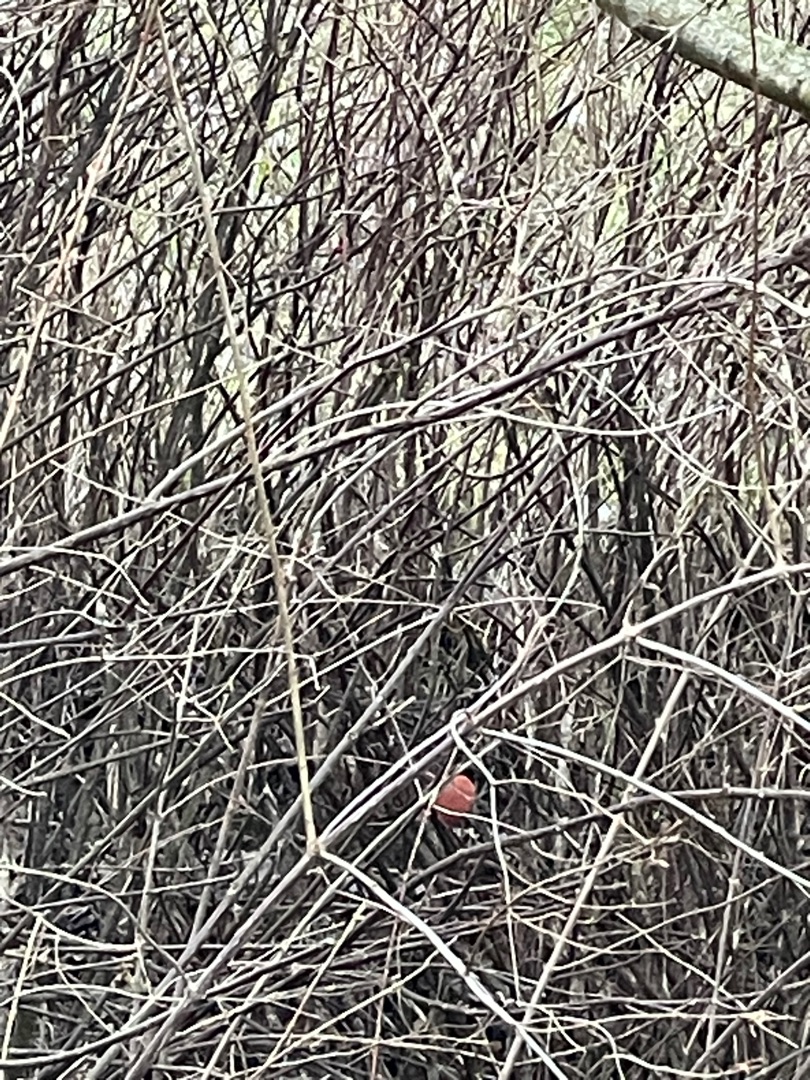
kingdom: Animalia
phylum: Chordata
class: Aves
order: Passeriformes
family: Fringillidae
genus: Pyrrhula
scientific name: Pyrrhula pyrrhula
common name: Dompap
